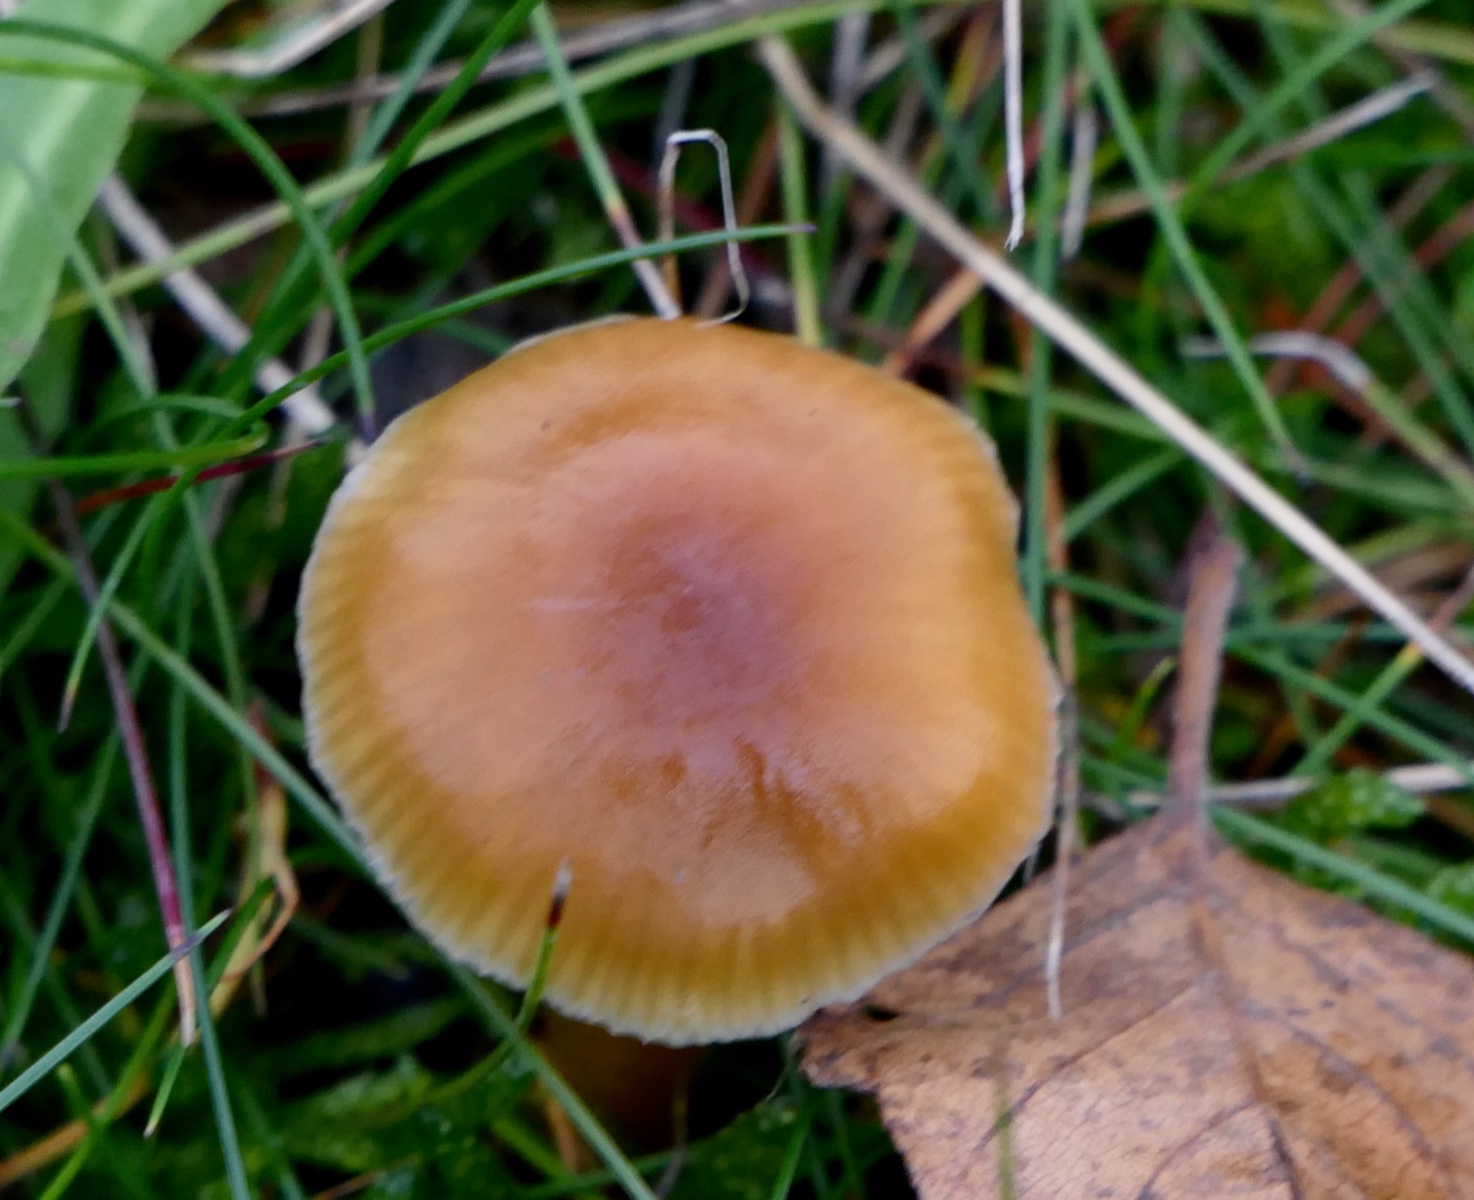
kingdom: Fungi
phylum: Basidiomycota
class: Agaricomycetes
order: Agaricales
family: Hygrophoraceae
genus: Gliophorus
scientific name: Gliophorus laetus
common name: brusk-vokshat
